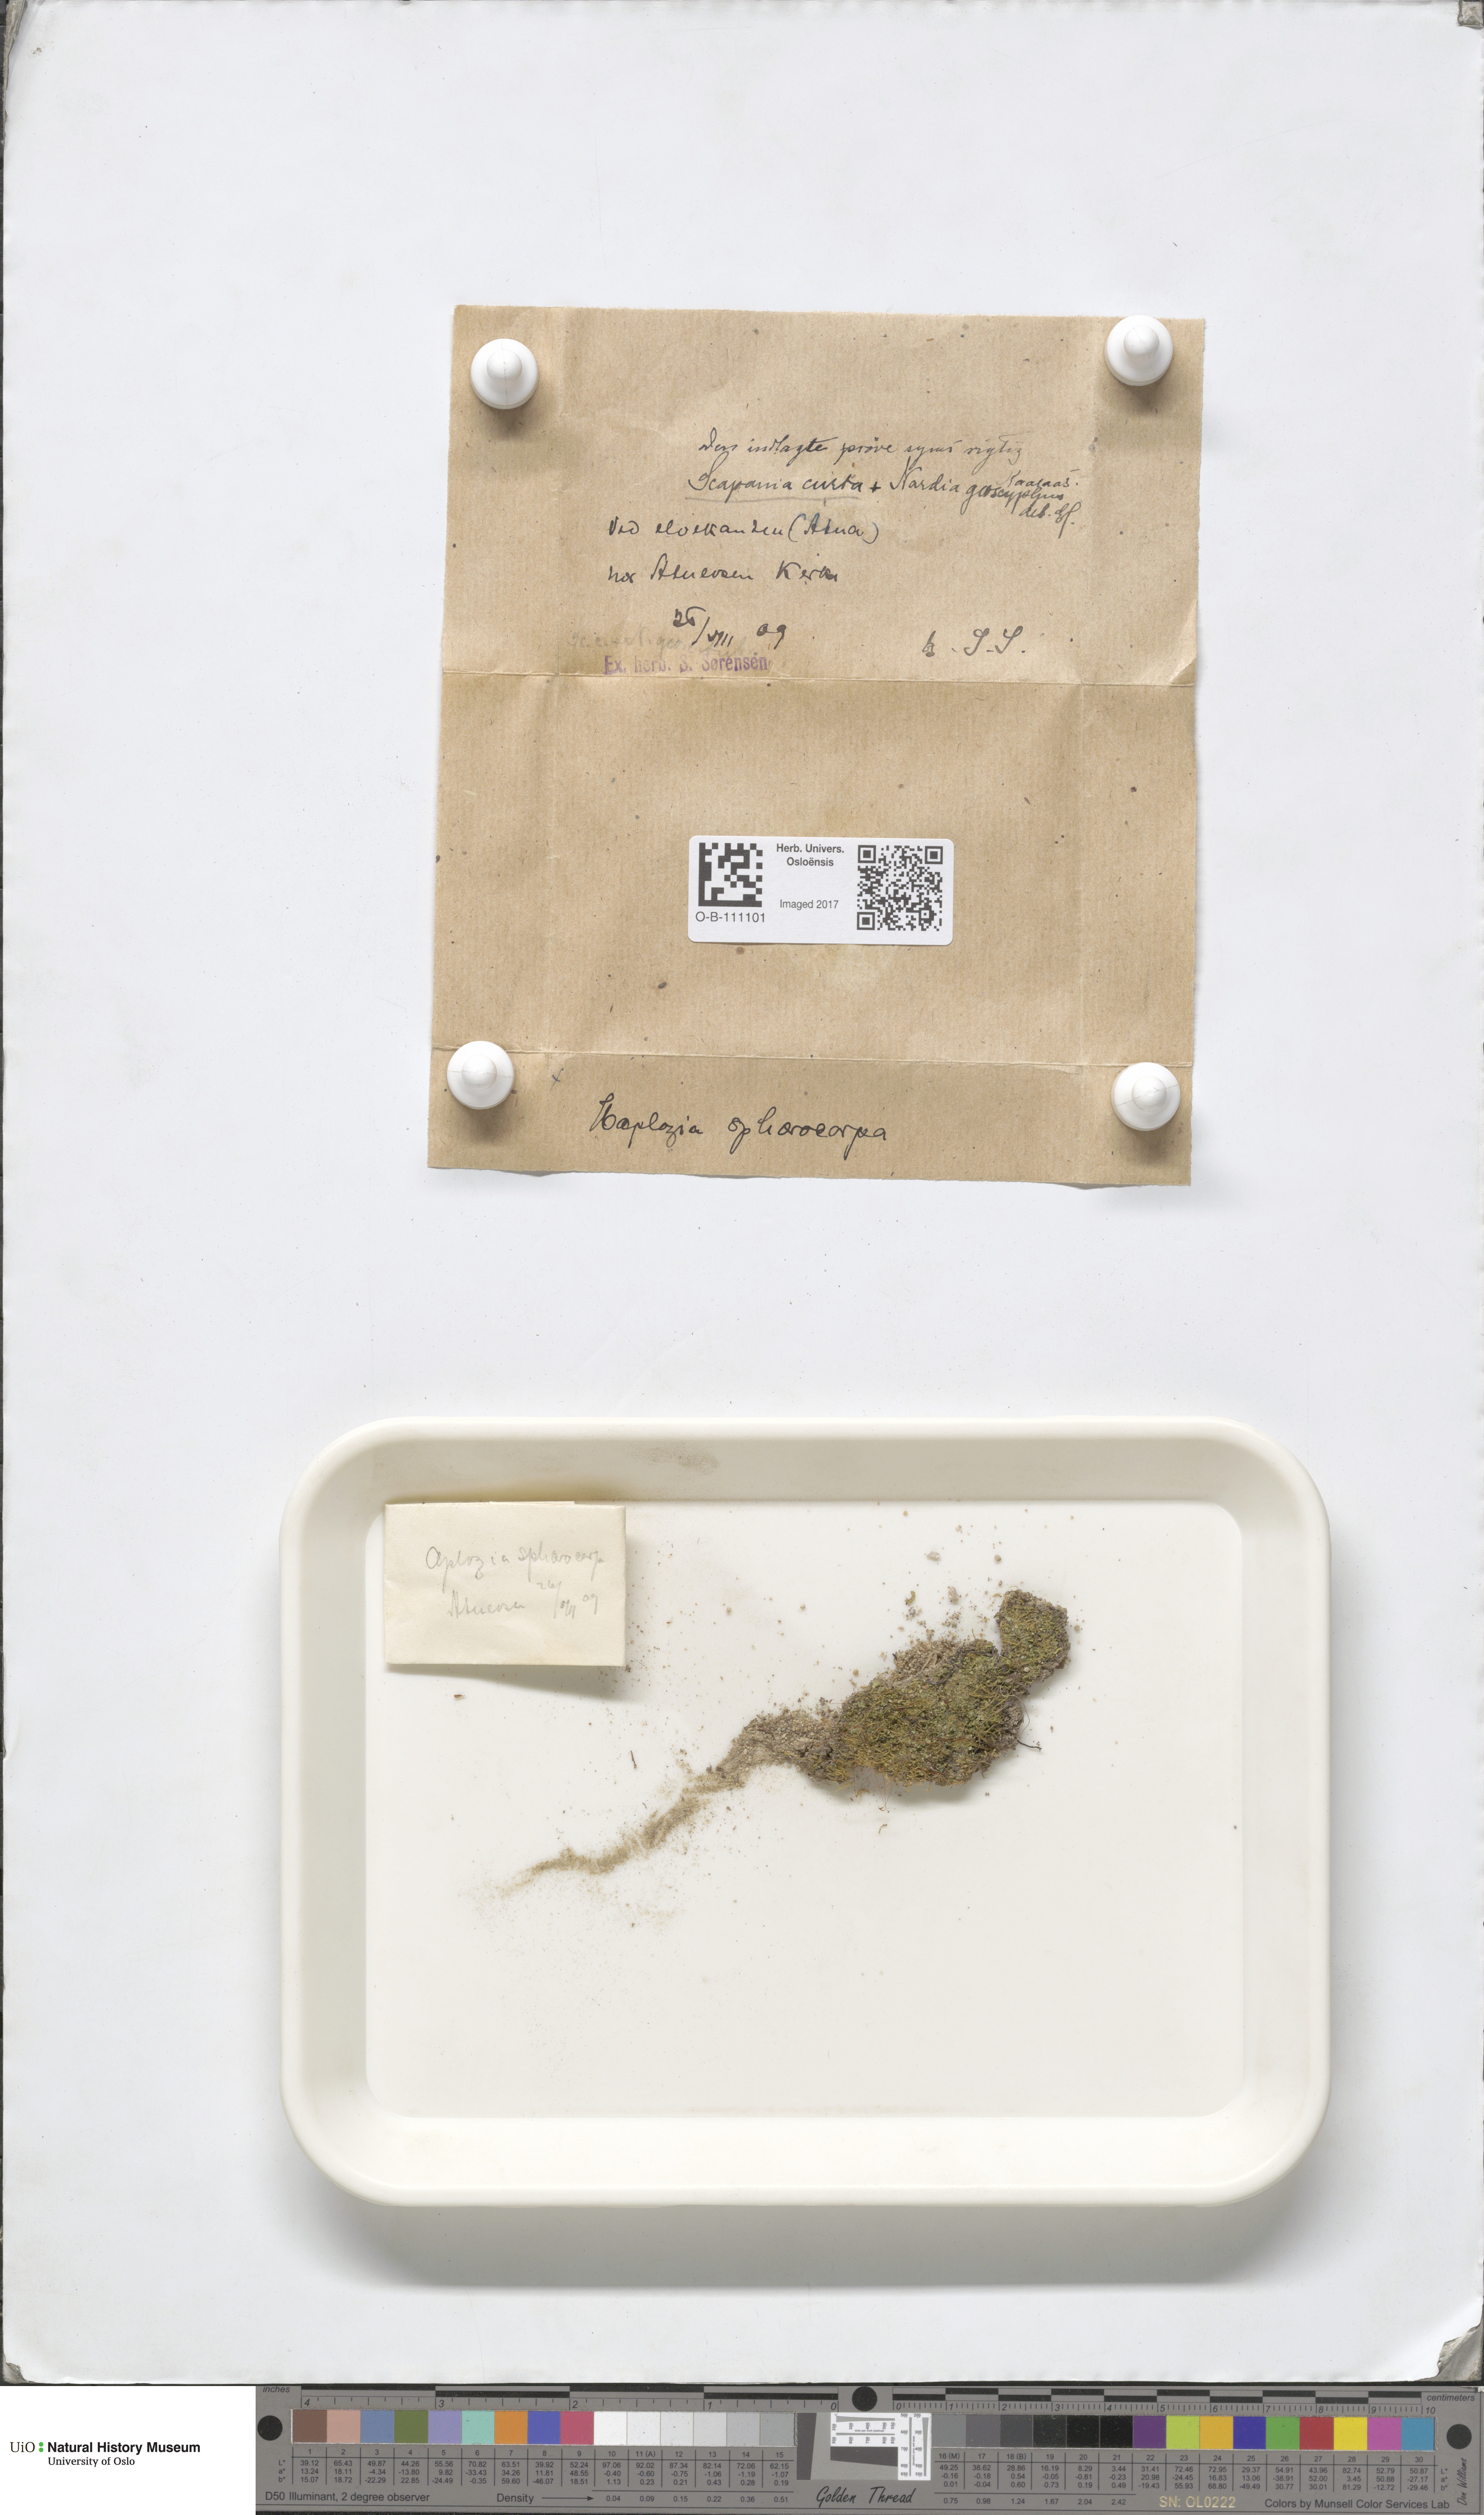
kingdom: Plantae
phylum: Marchantiophyta
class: Jungermanniopsida
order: Jungermanniales
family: Scapaniaceae
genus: Scapania
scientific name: Scapania curta
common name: Least earwort
